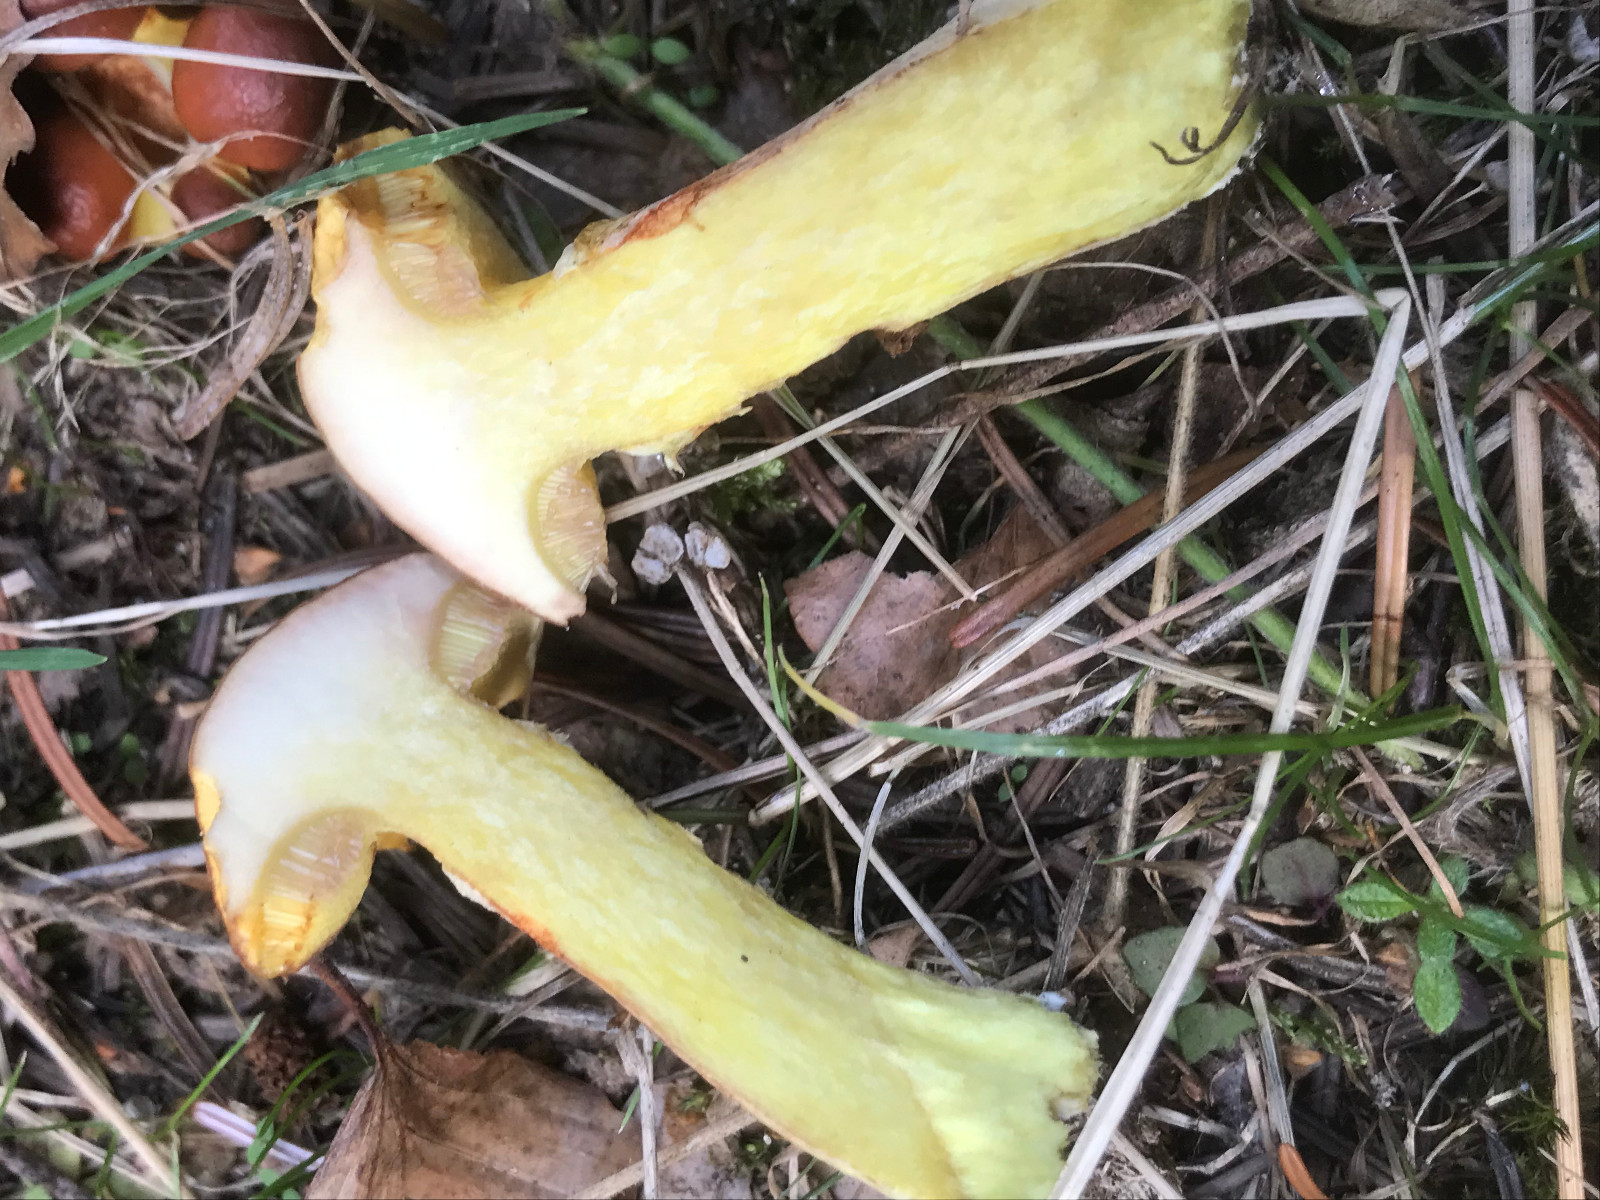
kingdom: Fungi
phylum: Basidiomycota
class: Agaricomycetes
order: Boletales
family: Suillaceae
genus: Suillus
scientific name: Suillus grevillei
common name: lærke-slimrørhat
